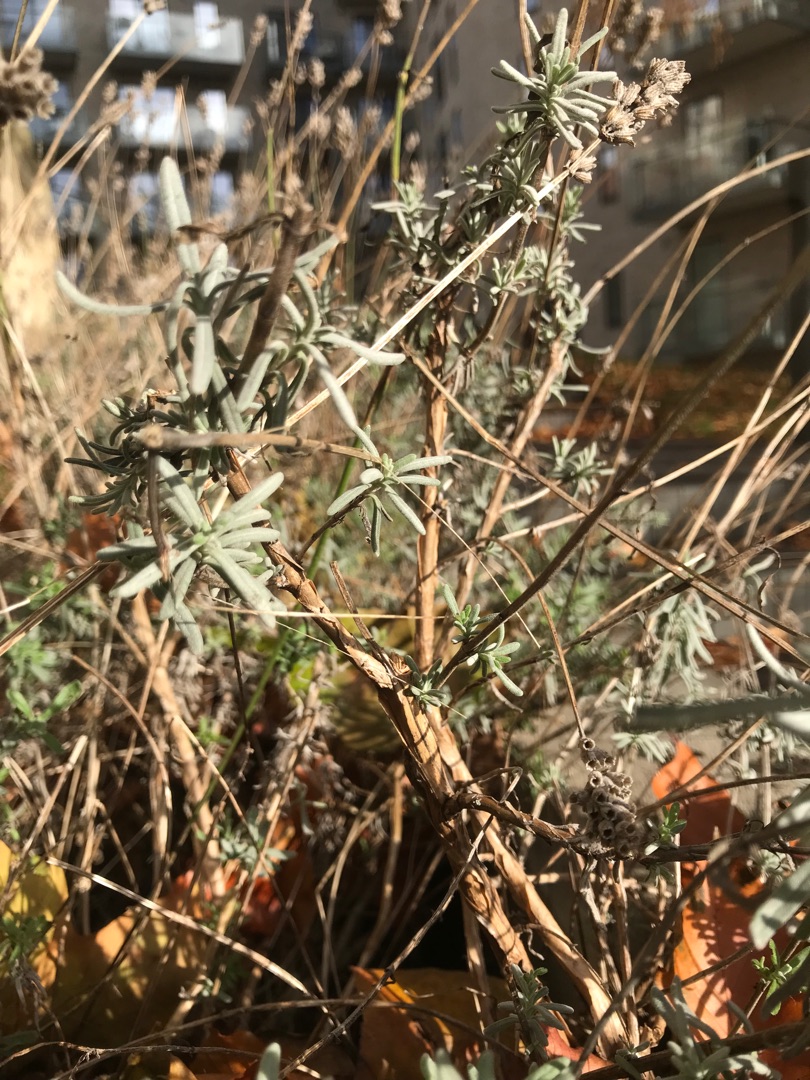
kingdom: Plantae
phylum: Tracheophyta
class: Magnoliopsida
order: Lamiales
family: Lamiaceae
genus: Lavandula
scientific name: Lavandula angustifolia
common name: Ægte lavendel
